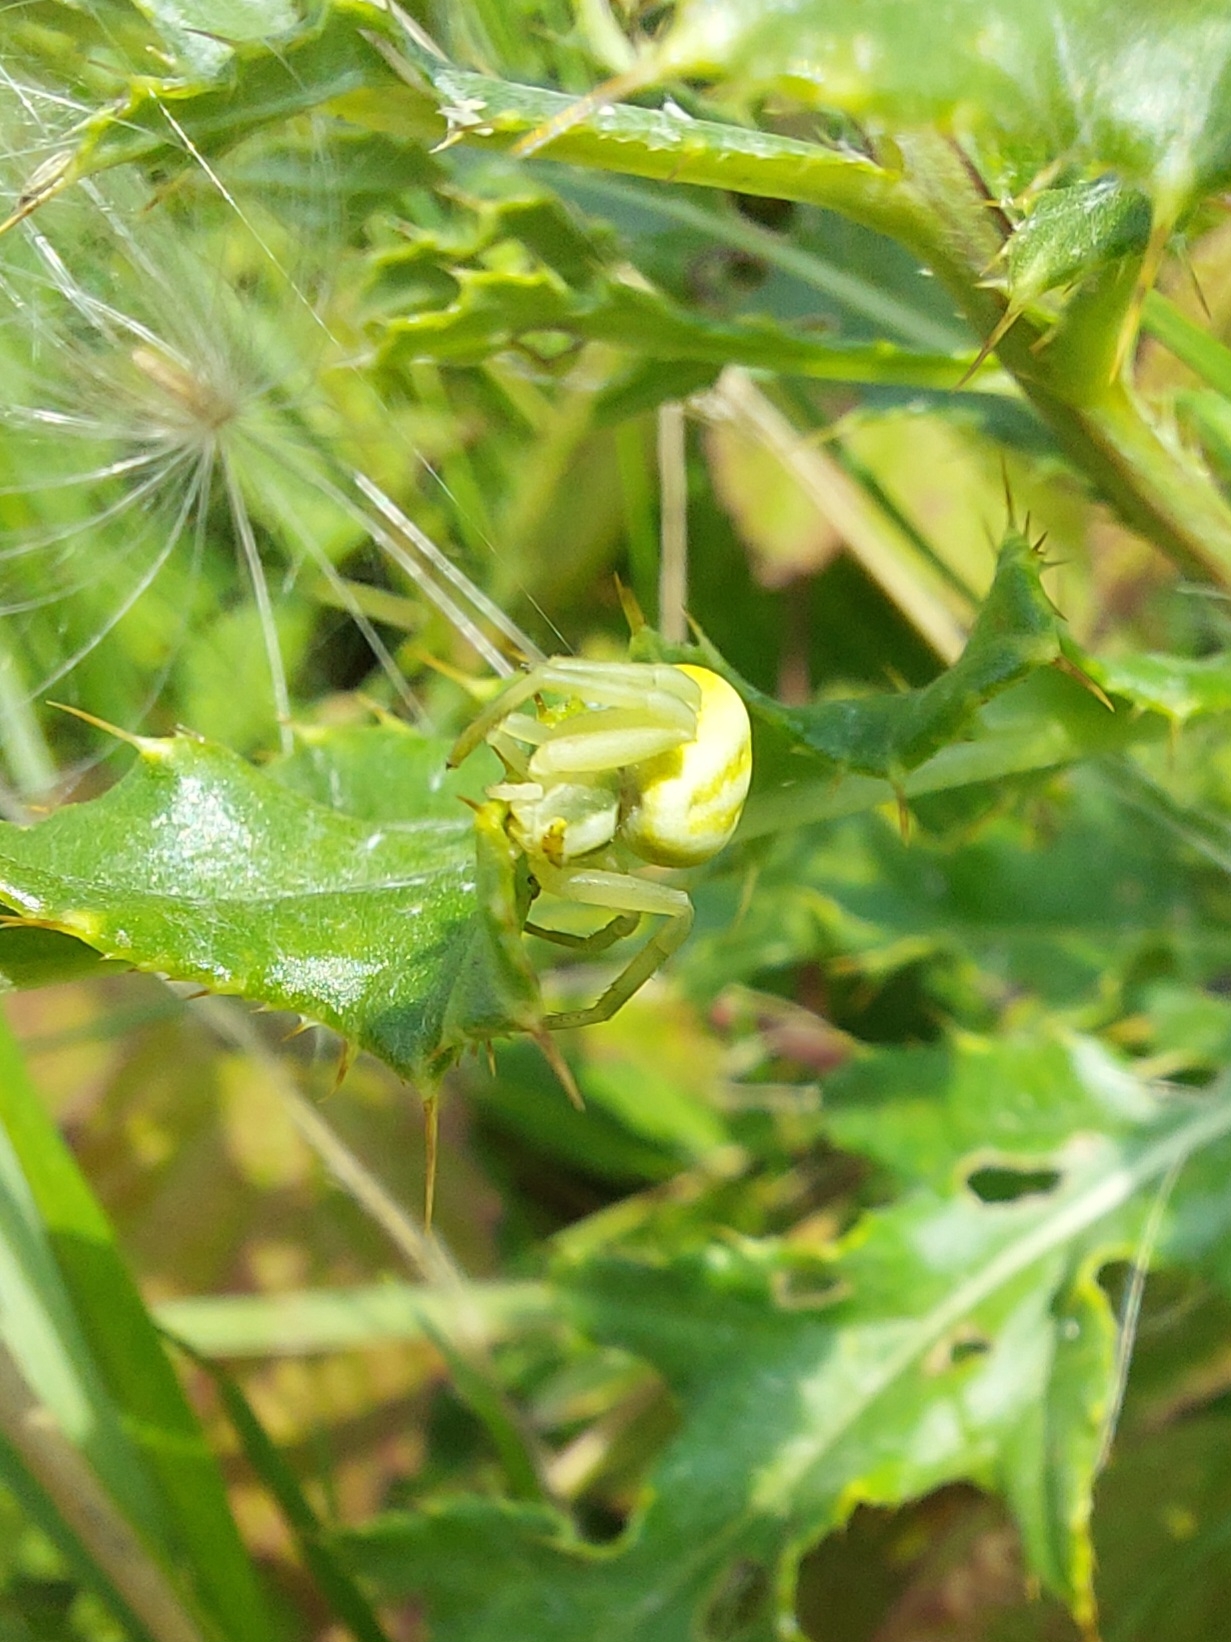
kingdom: Animalia
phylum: Arthropoda
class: Arachnida
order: Araneae
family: Thomisidae
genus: Misumena
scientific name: Misumena vatia
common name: Kamæleonedderkop
